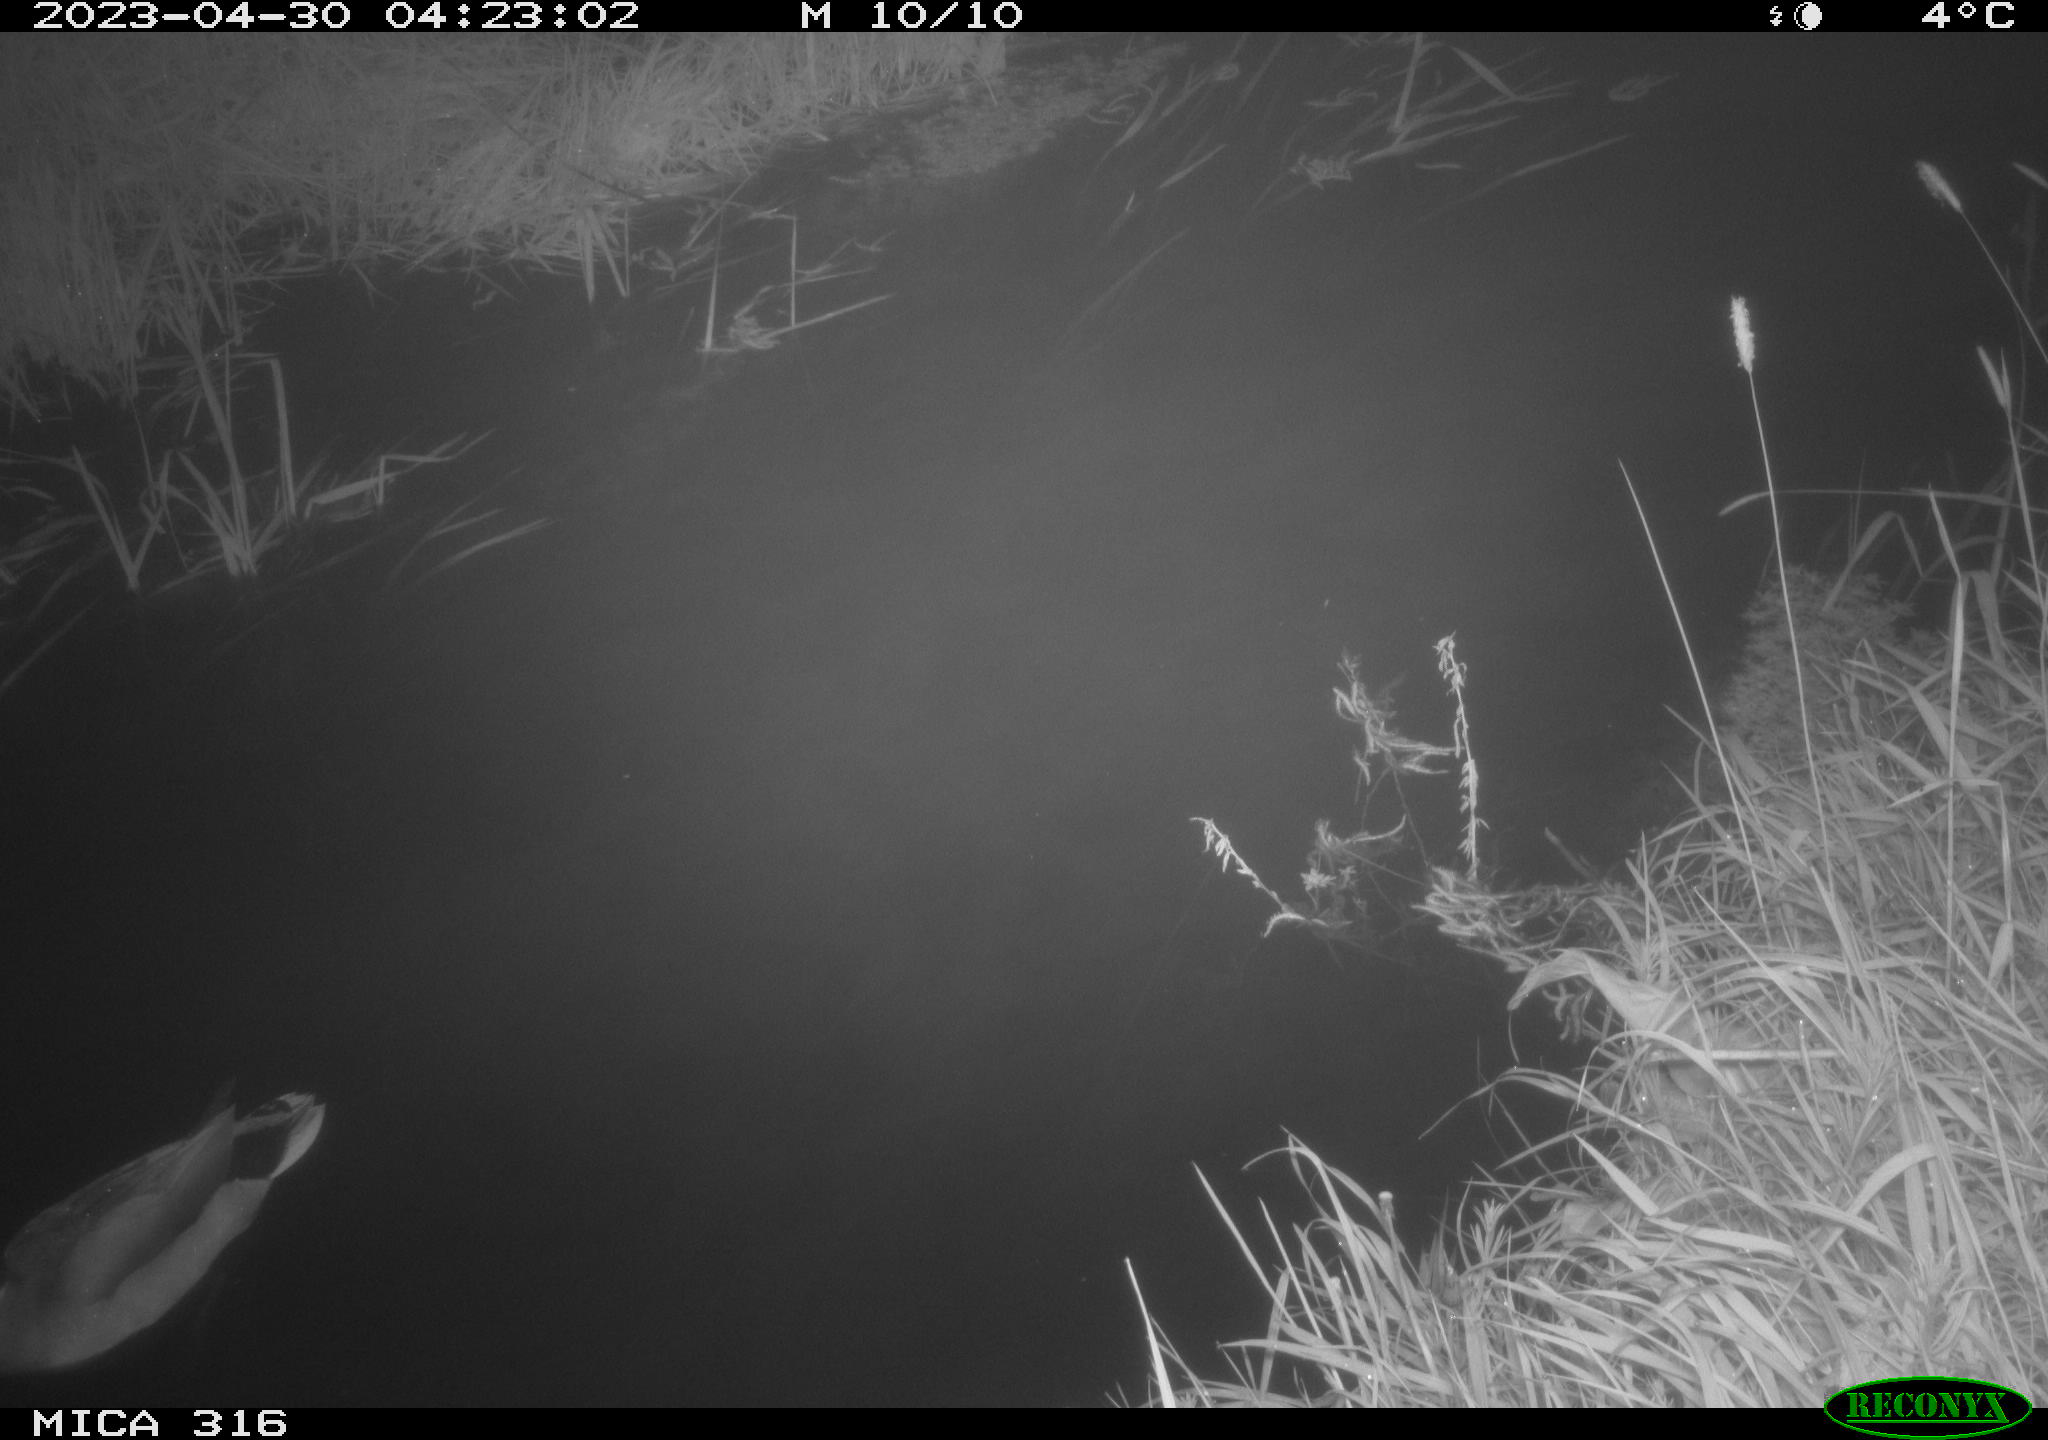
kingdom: Animalia
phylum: Chordata
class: Aves
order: Anseriformes
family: Anatidae
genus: Anas
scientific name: Anas
